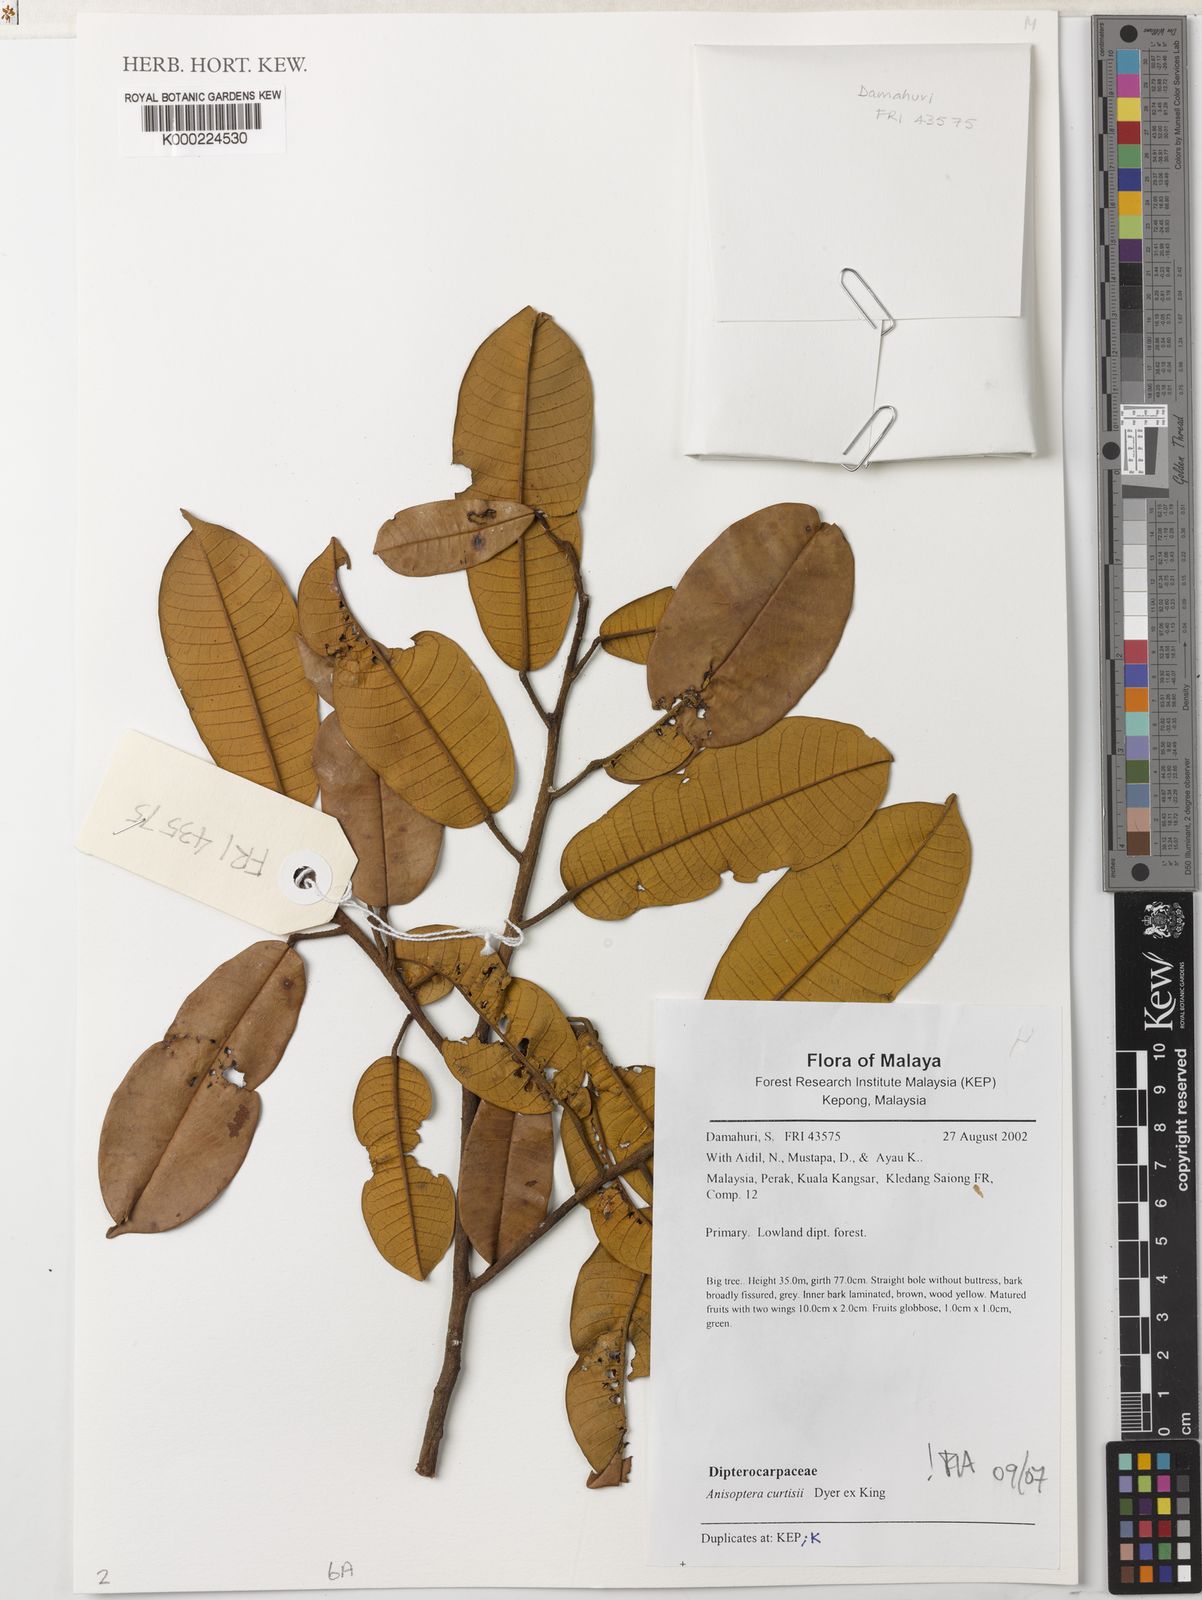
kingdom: Plantae
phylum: Tracheophyta
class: Magnoliopsida
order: Malvales
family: Dipterocarpaceae
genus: Anisoptera
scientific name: Anisoptera curtisii
